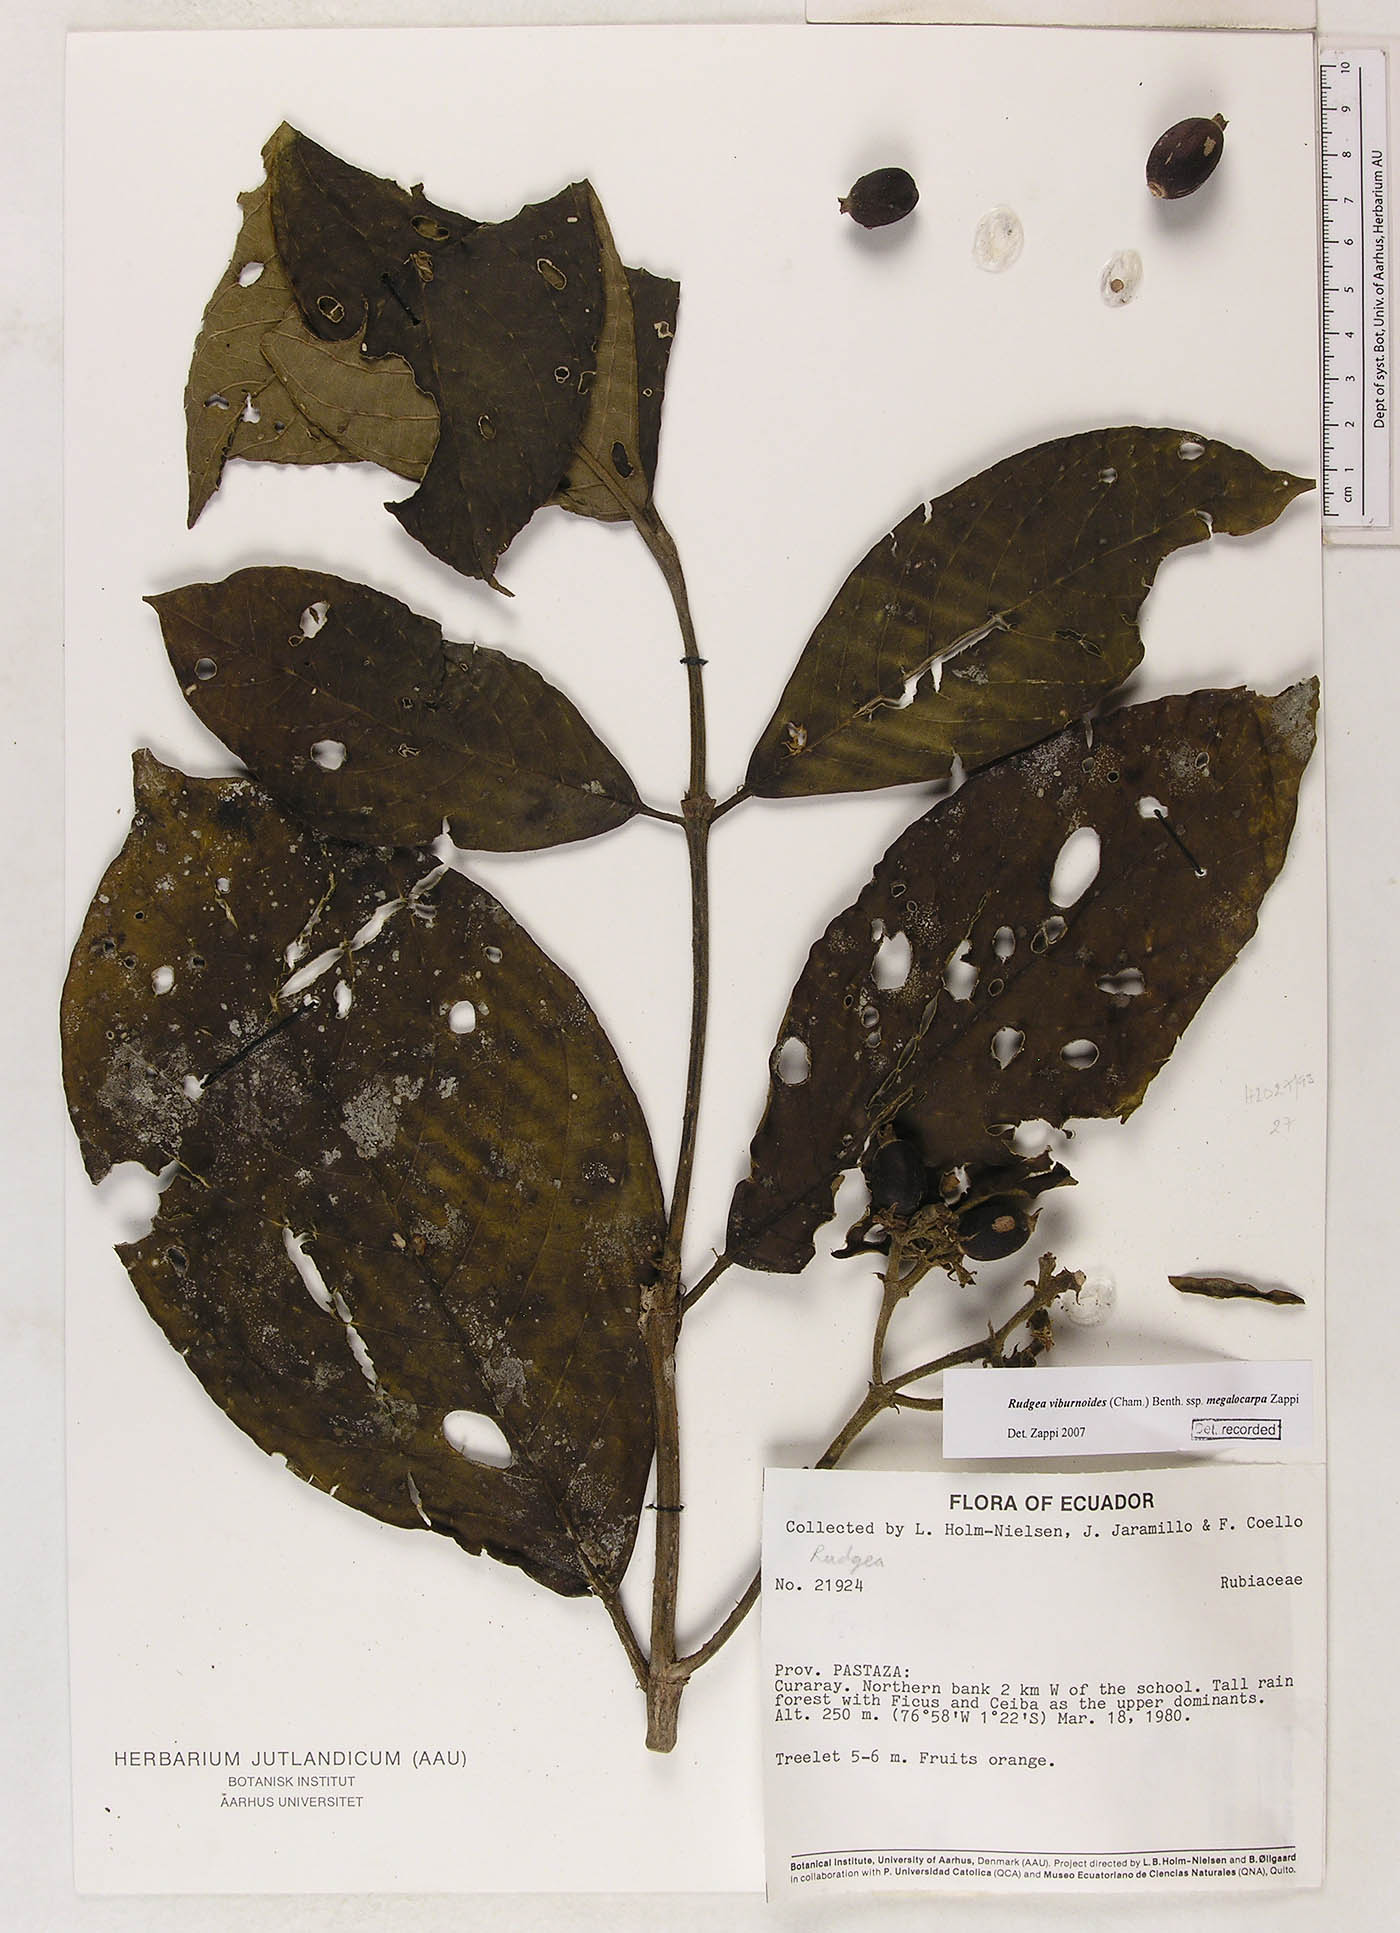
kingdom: Plantae
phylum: Tracheophyta
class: Magnoliopsida
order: Gentianales
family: Rubiaceae
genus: Rudgea
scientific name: Rudgea viburnoides
